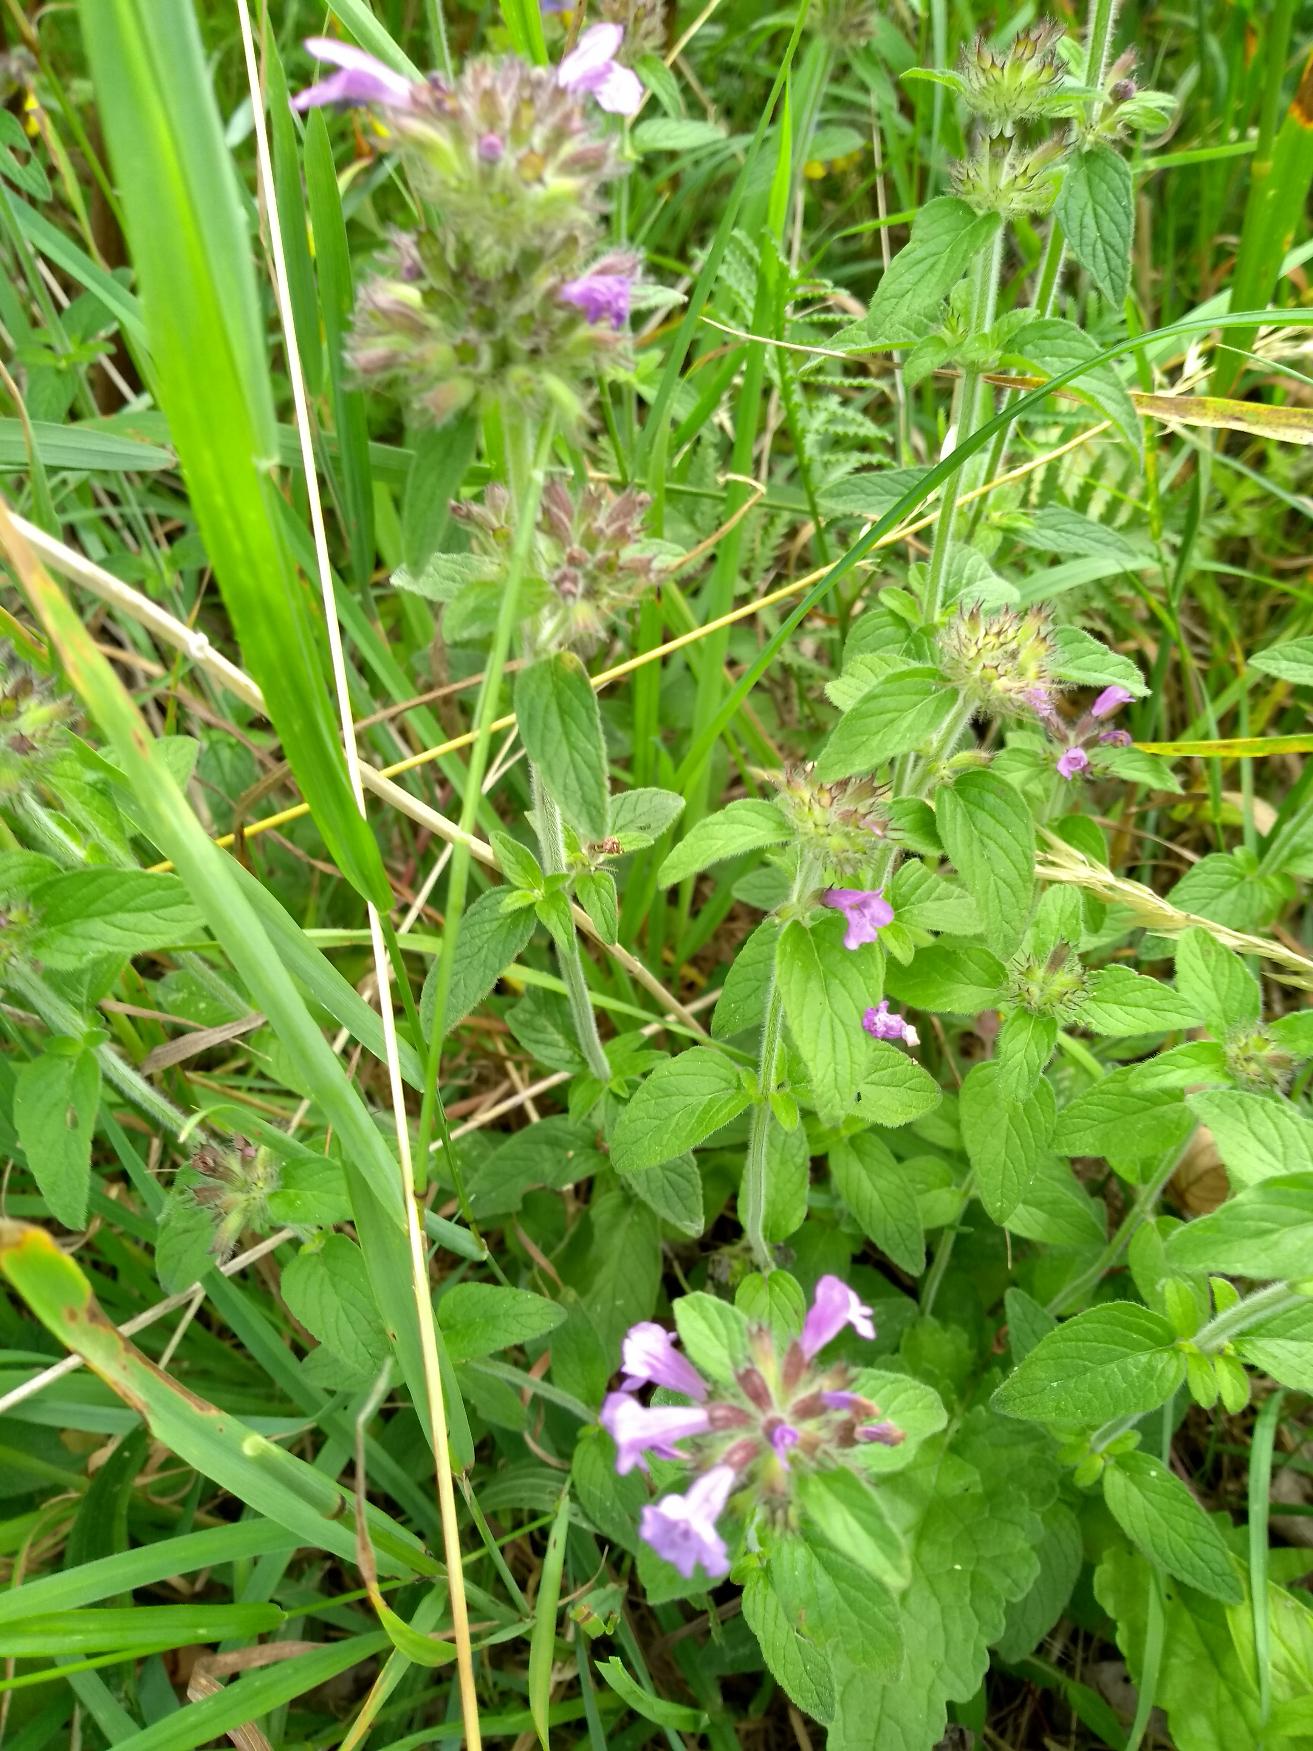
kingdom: Plantae
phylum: Tracheophyta
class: Magnoliopsida
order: Lamiales
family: Lamiaceae
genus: Clinopodium
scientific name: Clinopodium vulgare
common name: Kransbørste
